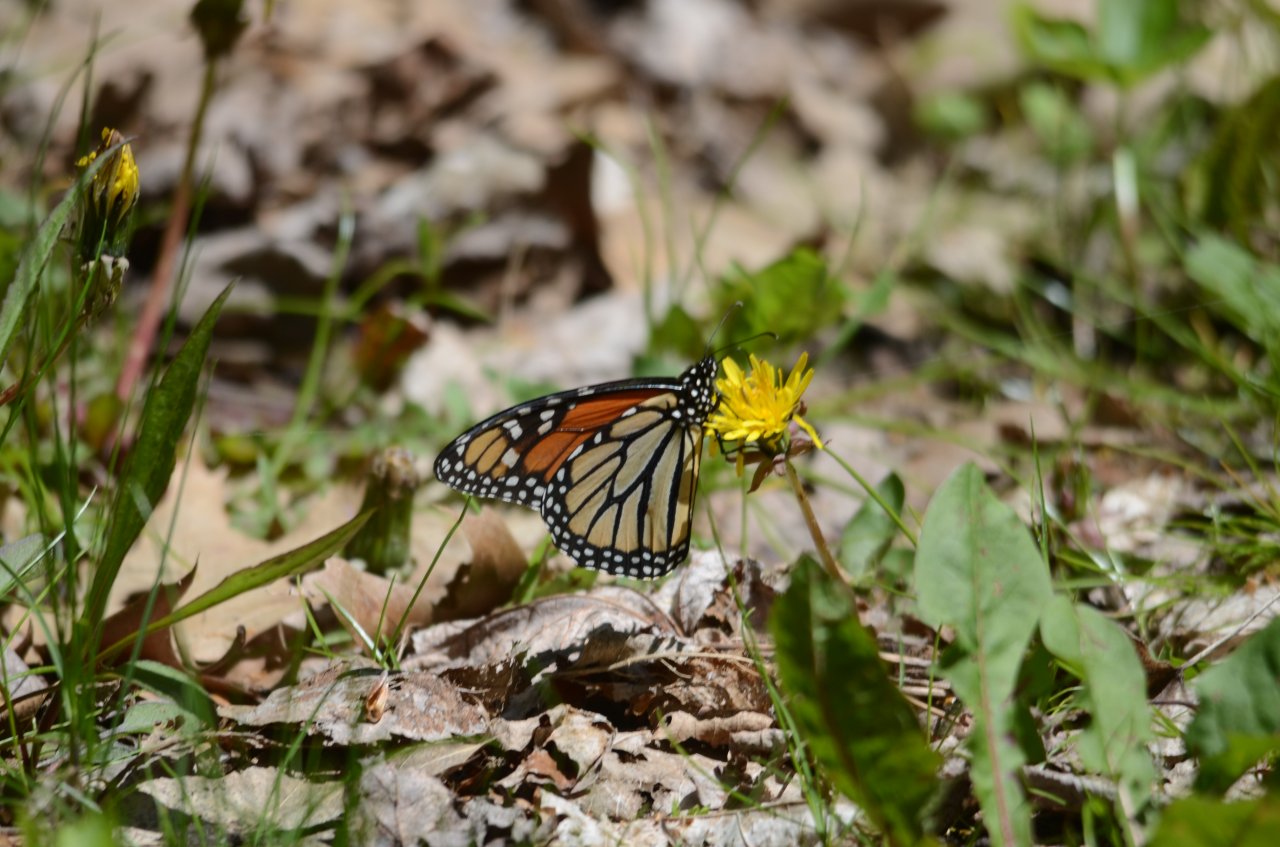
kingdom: Animalia
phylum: Arthropoda
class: Insecta
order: Lepidoptera
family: Nymphalidae
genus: Danaus
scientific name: Danaus plexippus
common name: Monarch
